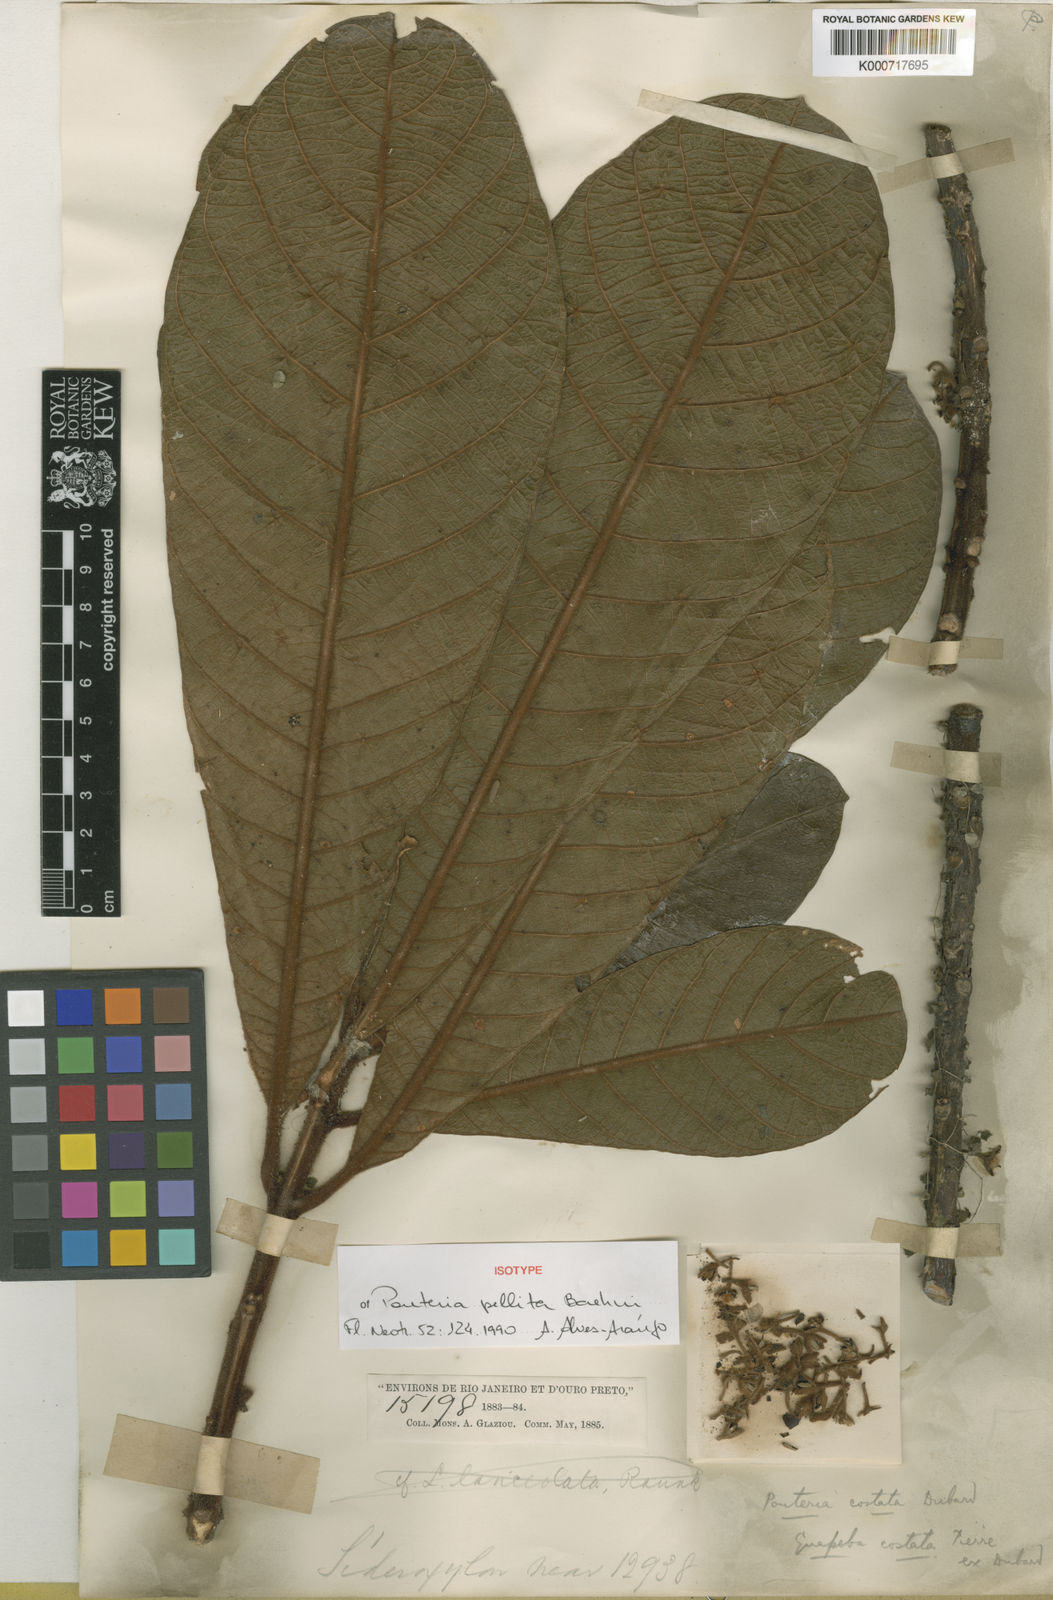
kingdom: Plantae
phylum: Tracheophyta
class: Magnoliopsida
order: Ericales
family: Sapotaceae
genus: Pouteria
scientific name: Pouteria bullata
